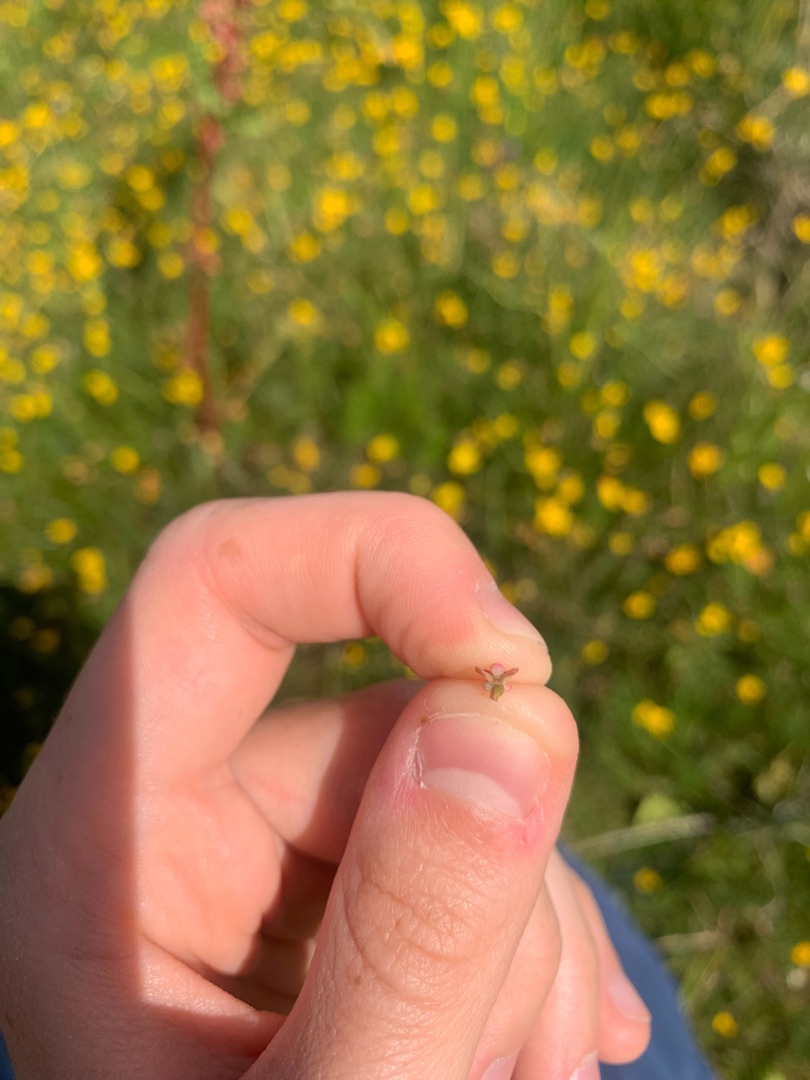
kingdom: Plantae
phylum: Tracheophyta
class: Magnoliopsida
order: Caryophyllales
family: Polygonaceae
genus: Rumex
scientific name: Rumex crispus
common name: Kruset skræppe
